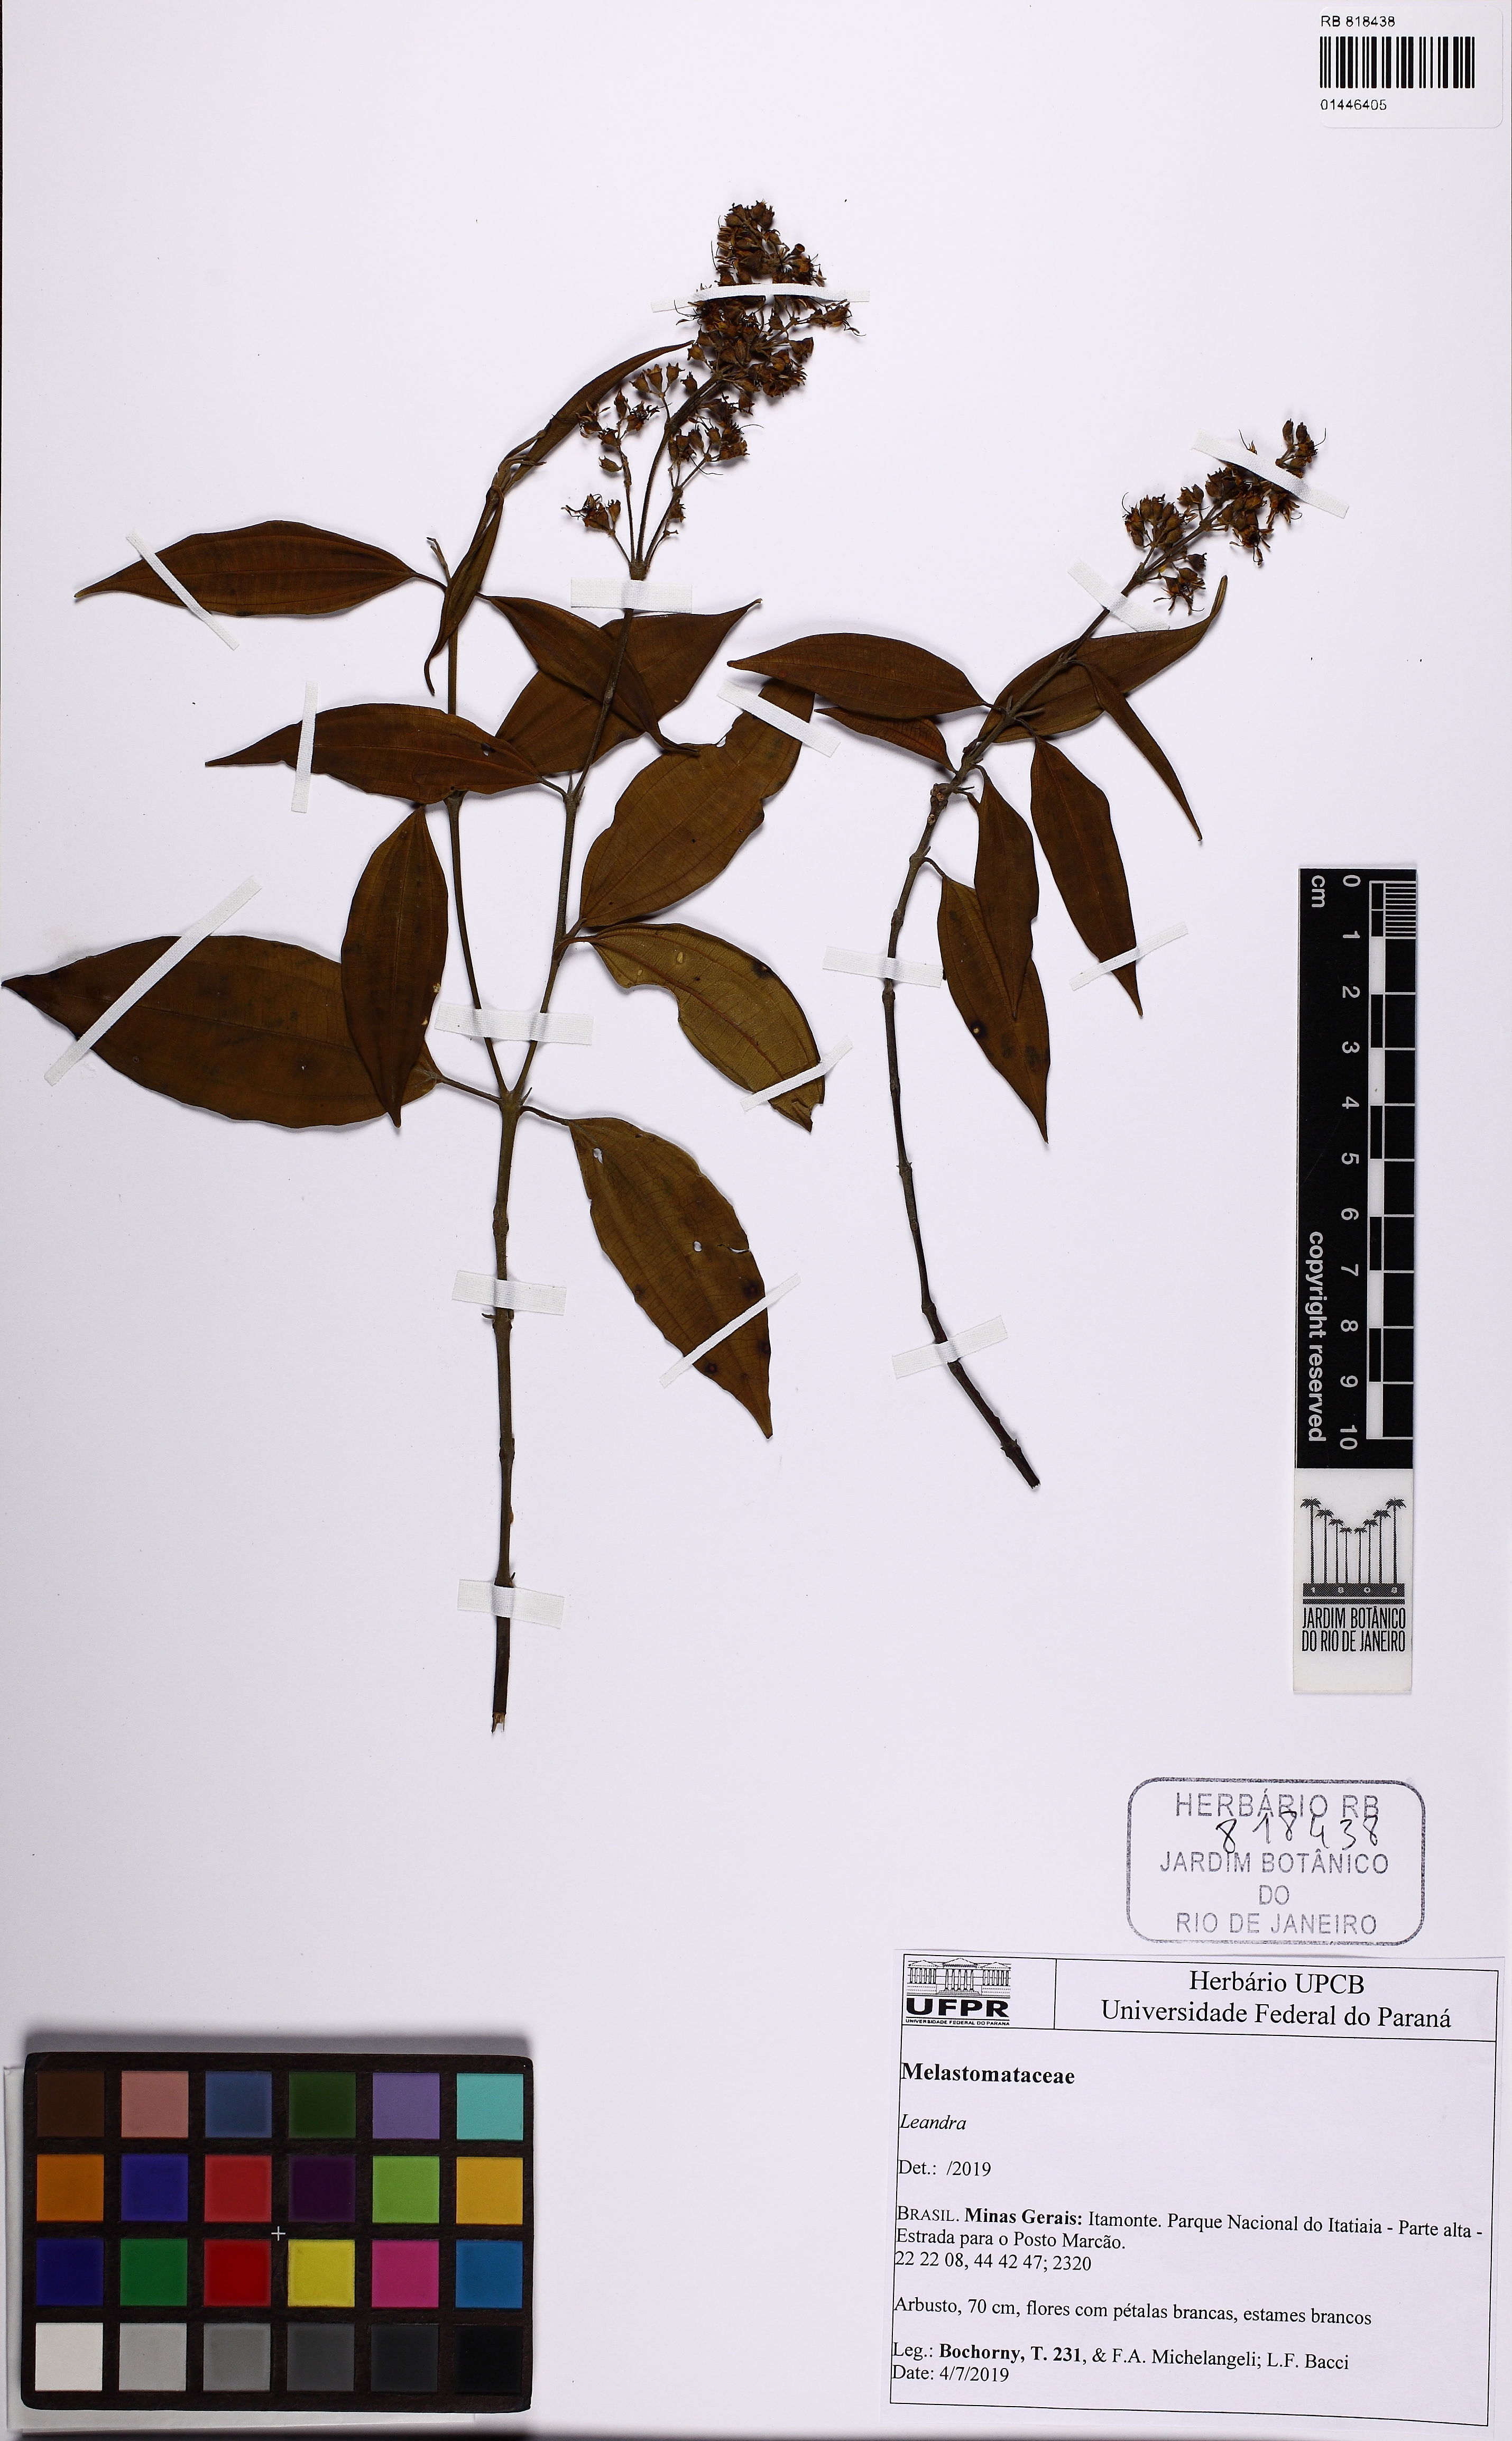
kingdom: Plantae
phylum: Tracheophyta
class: Magnoliopsida
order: Myrtales
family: Melastomataceae
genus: Miconia
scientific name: Miconia
